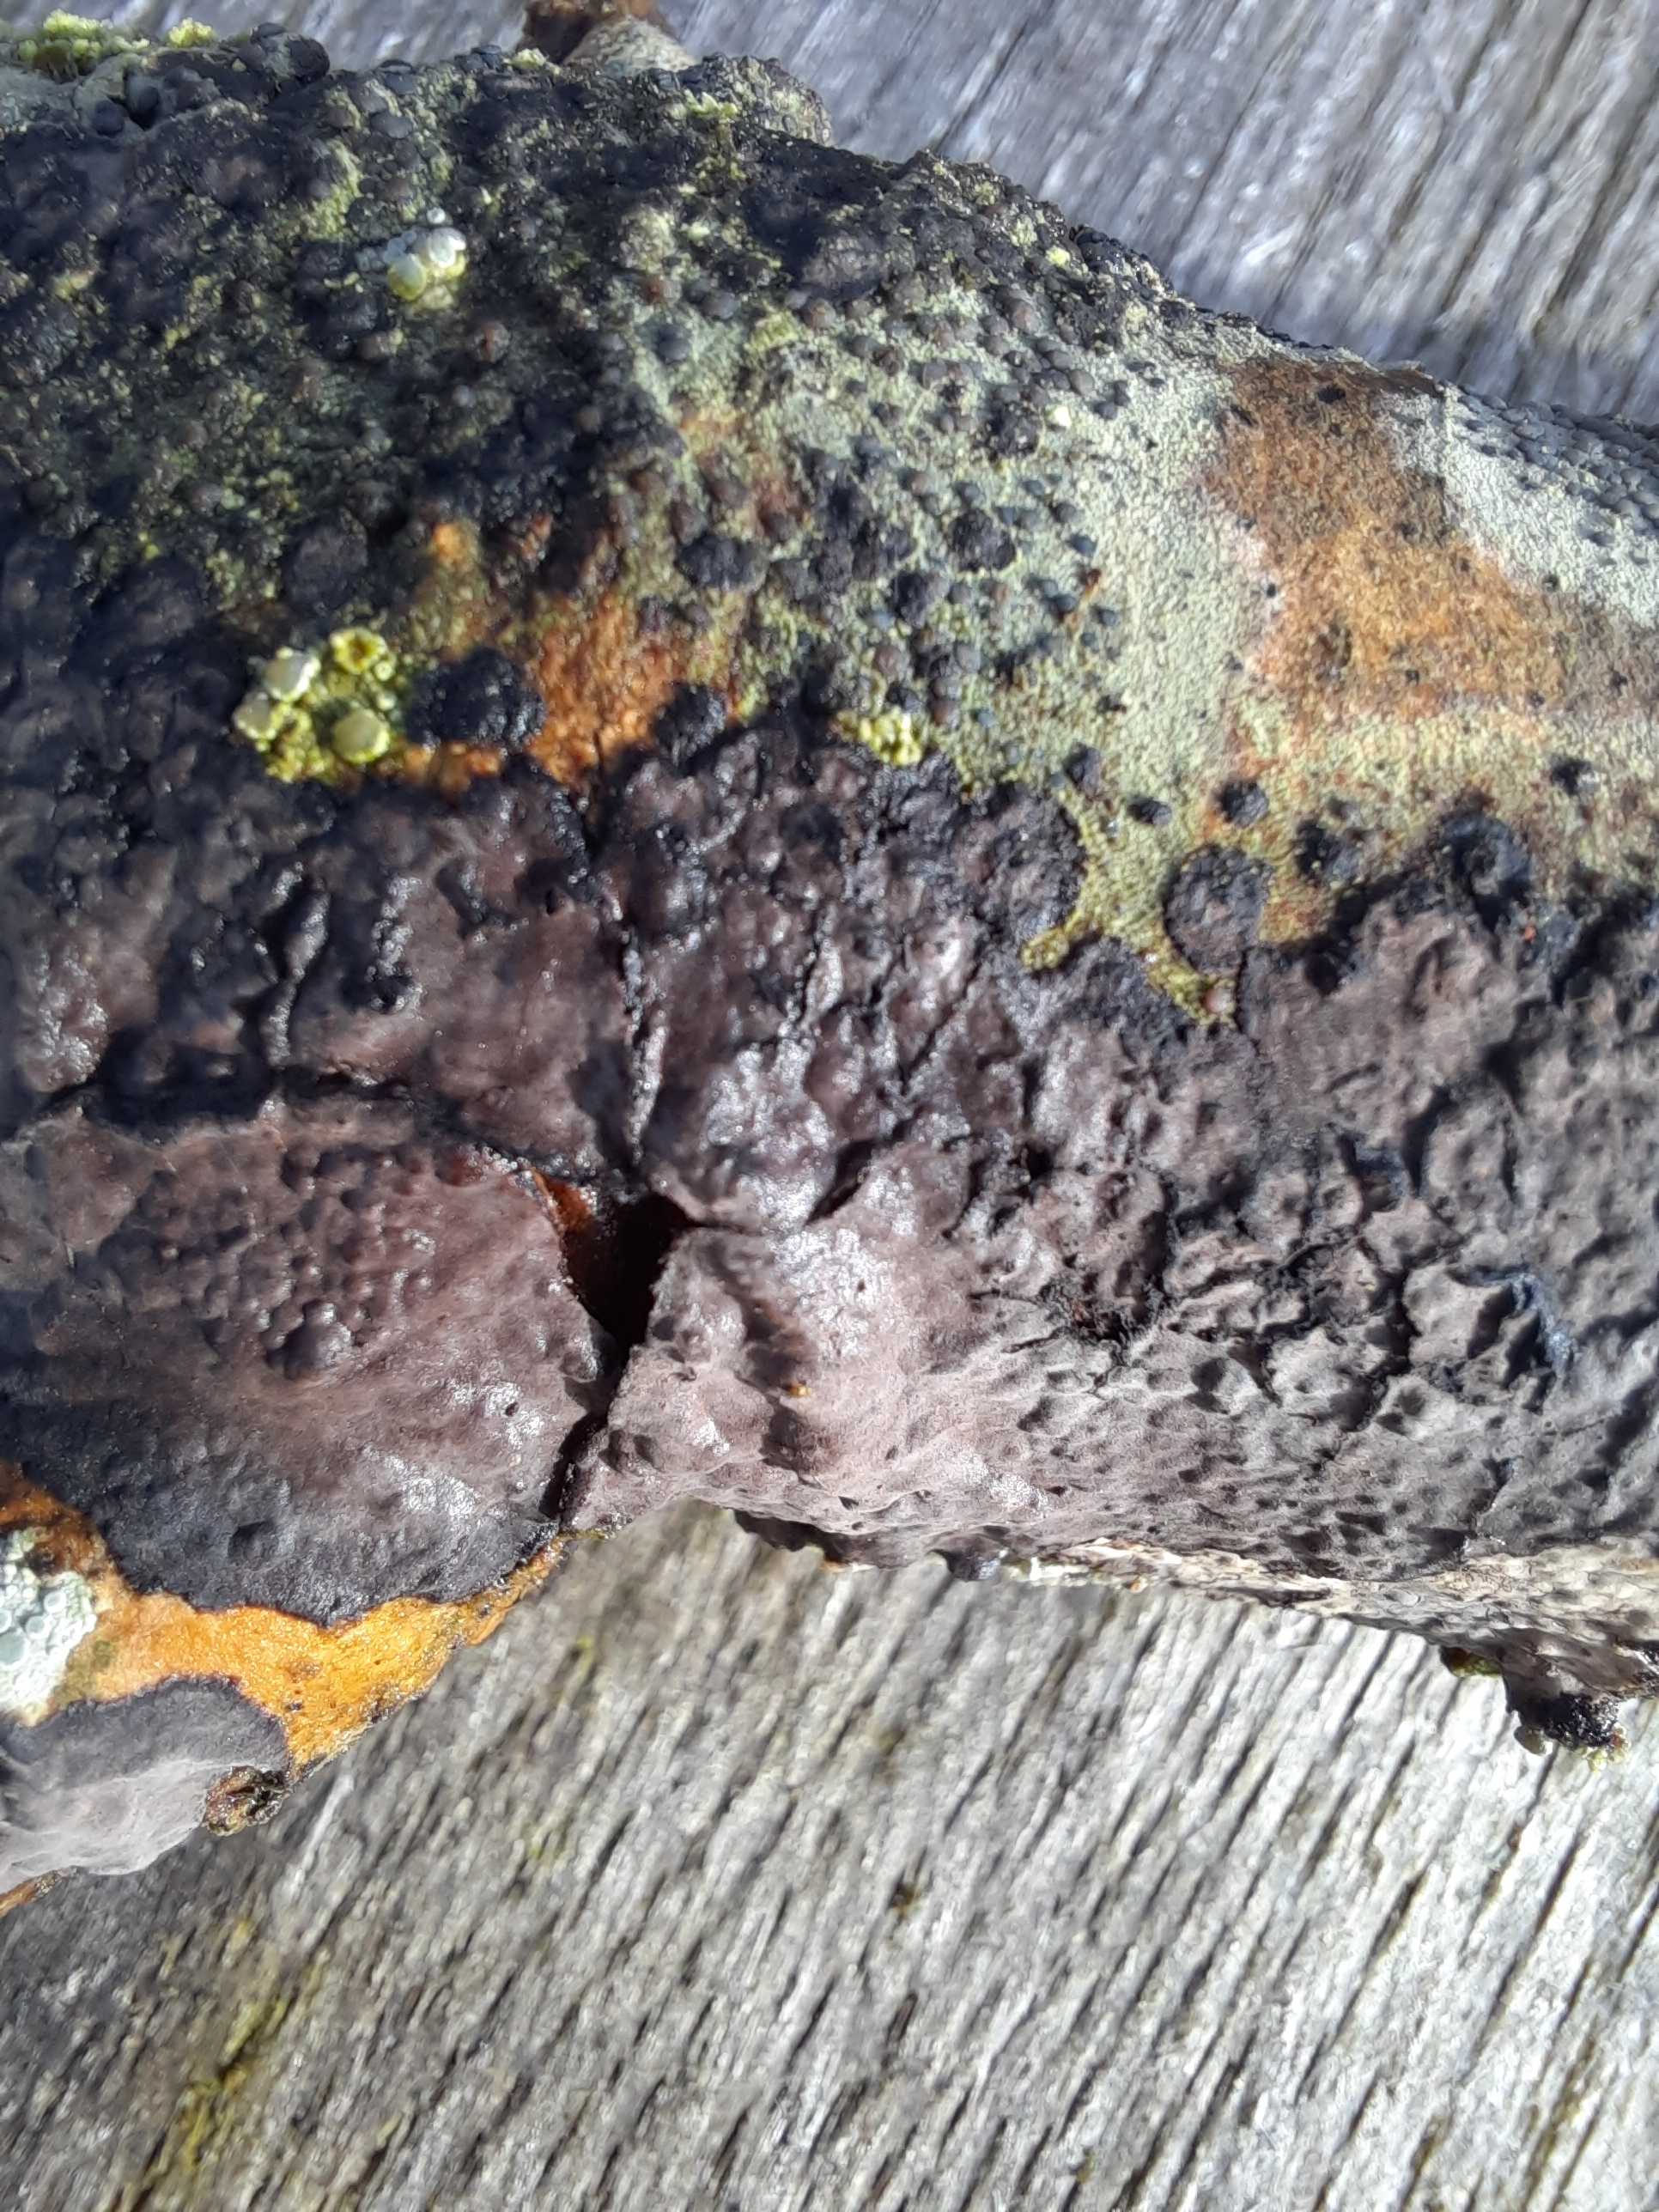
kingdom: Fungi
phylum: Basidiomycota
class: Agaricomycetes
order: Russulales
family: Peniophoraceae
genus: Peniophora
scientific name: Peniophora limitata
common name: mørkrandet voksskind
